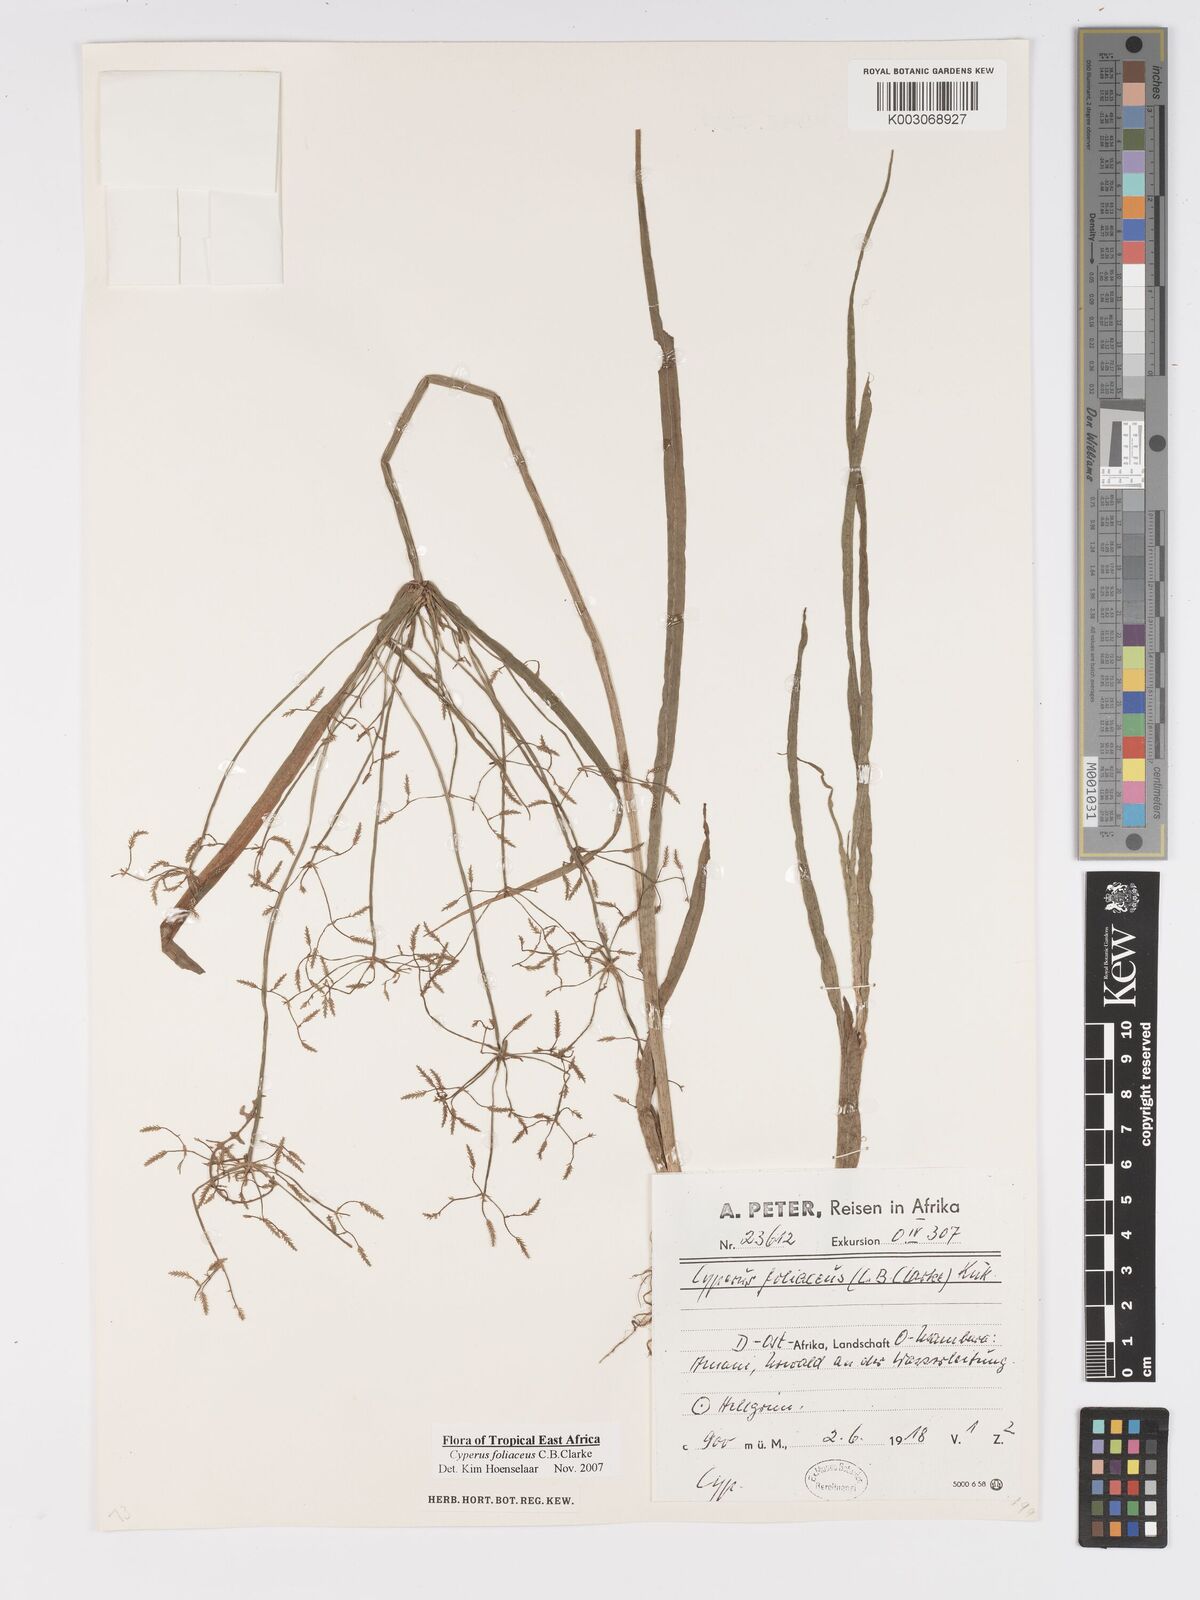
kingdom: Plantae
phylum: Tracheophyta
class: Liliopsida
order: Poales
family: Cyperaceae
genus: Cyperus
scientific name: Cyperus foliaceus
